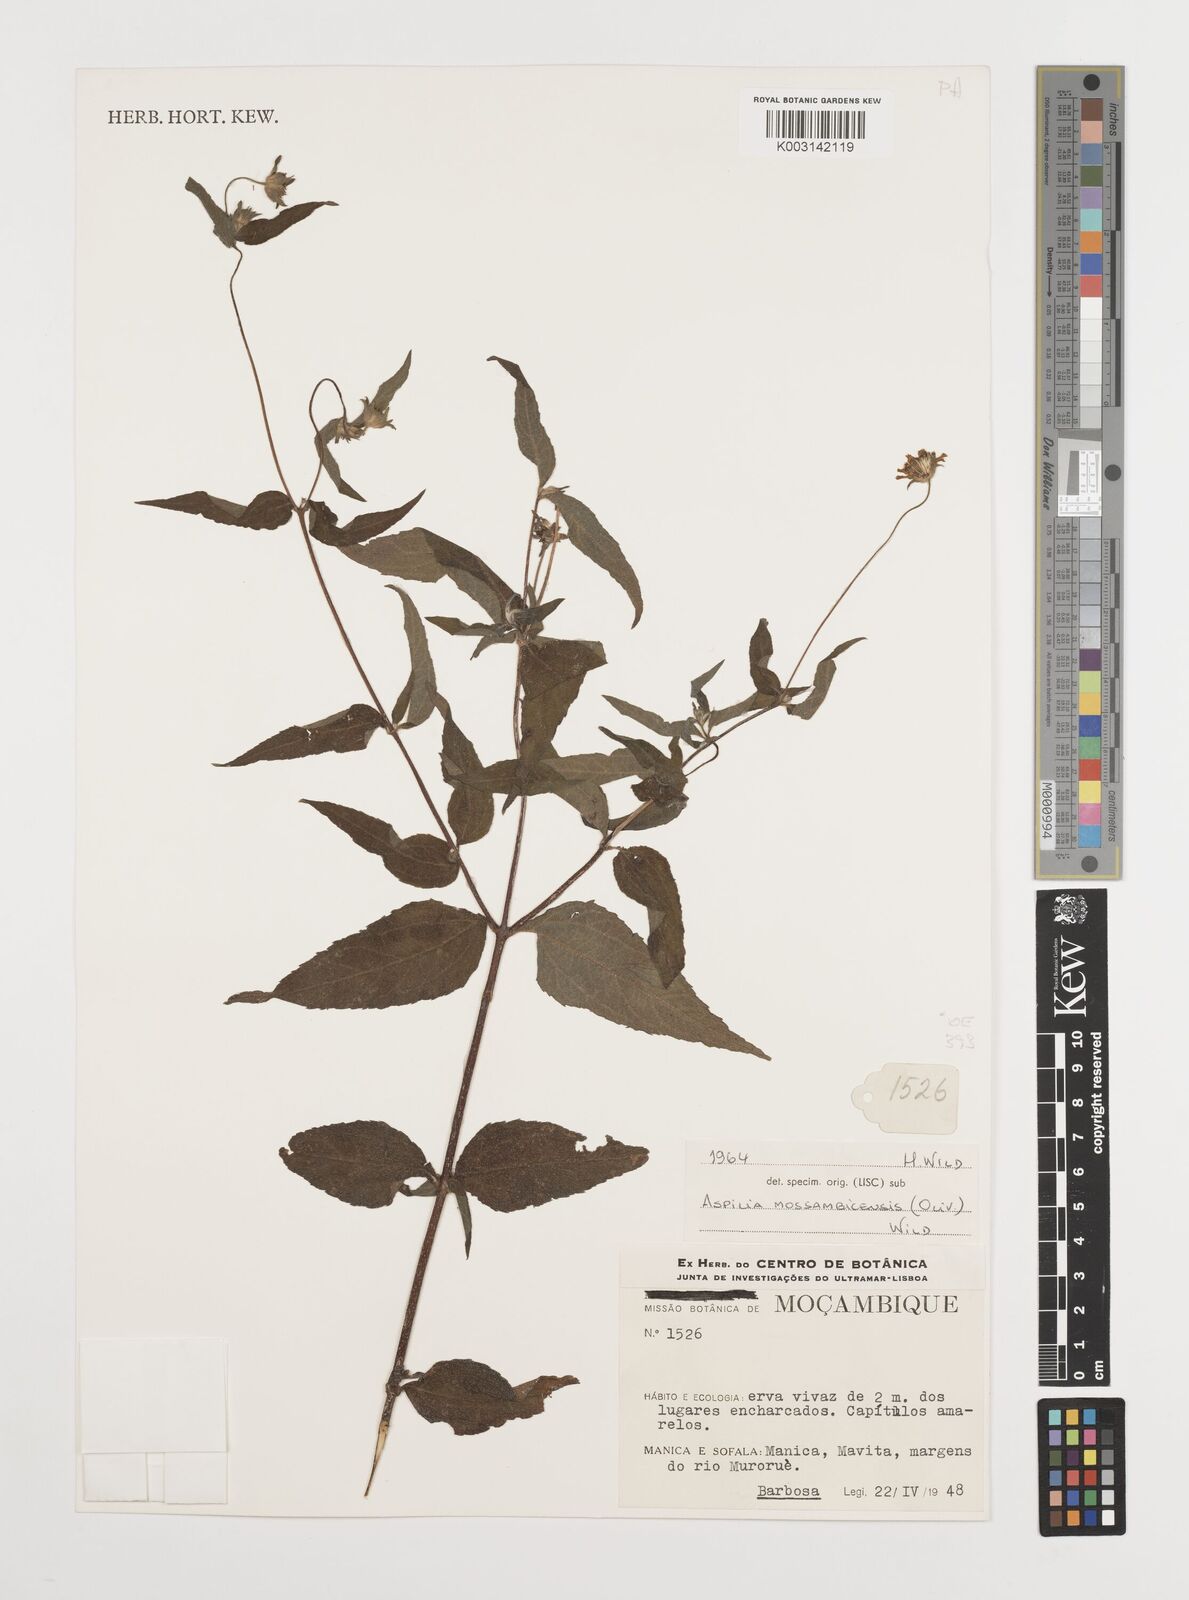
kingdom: Plantae
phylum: Tracheophyta
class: Magnoliopsida
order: Asterales
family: Asteraceae
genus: Aspilia
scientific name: Aspilia mossambicensis
